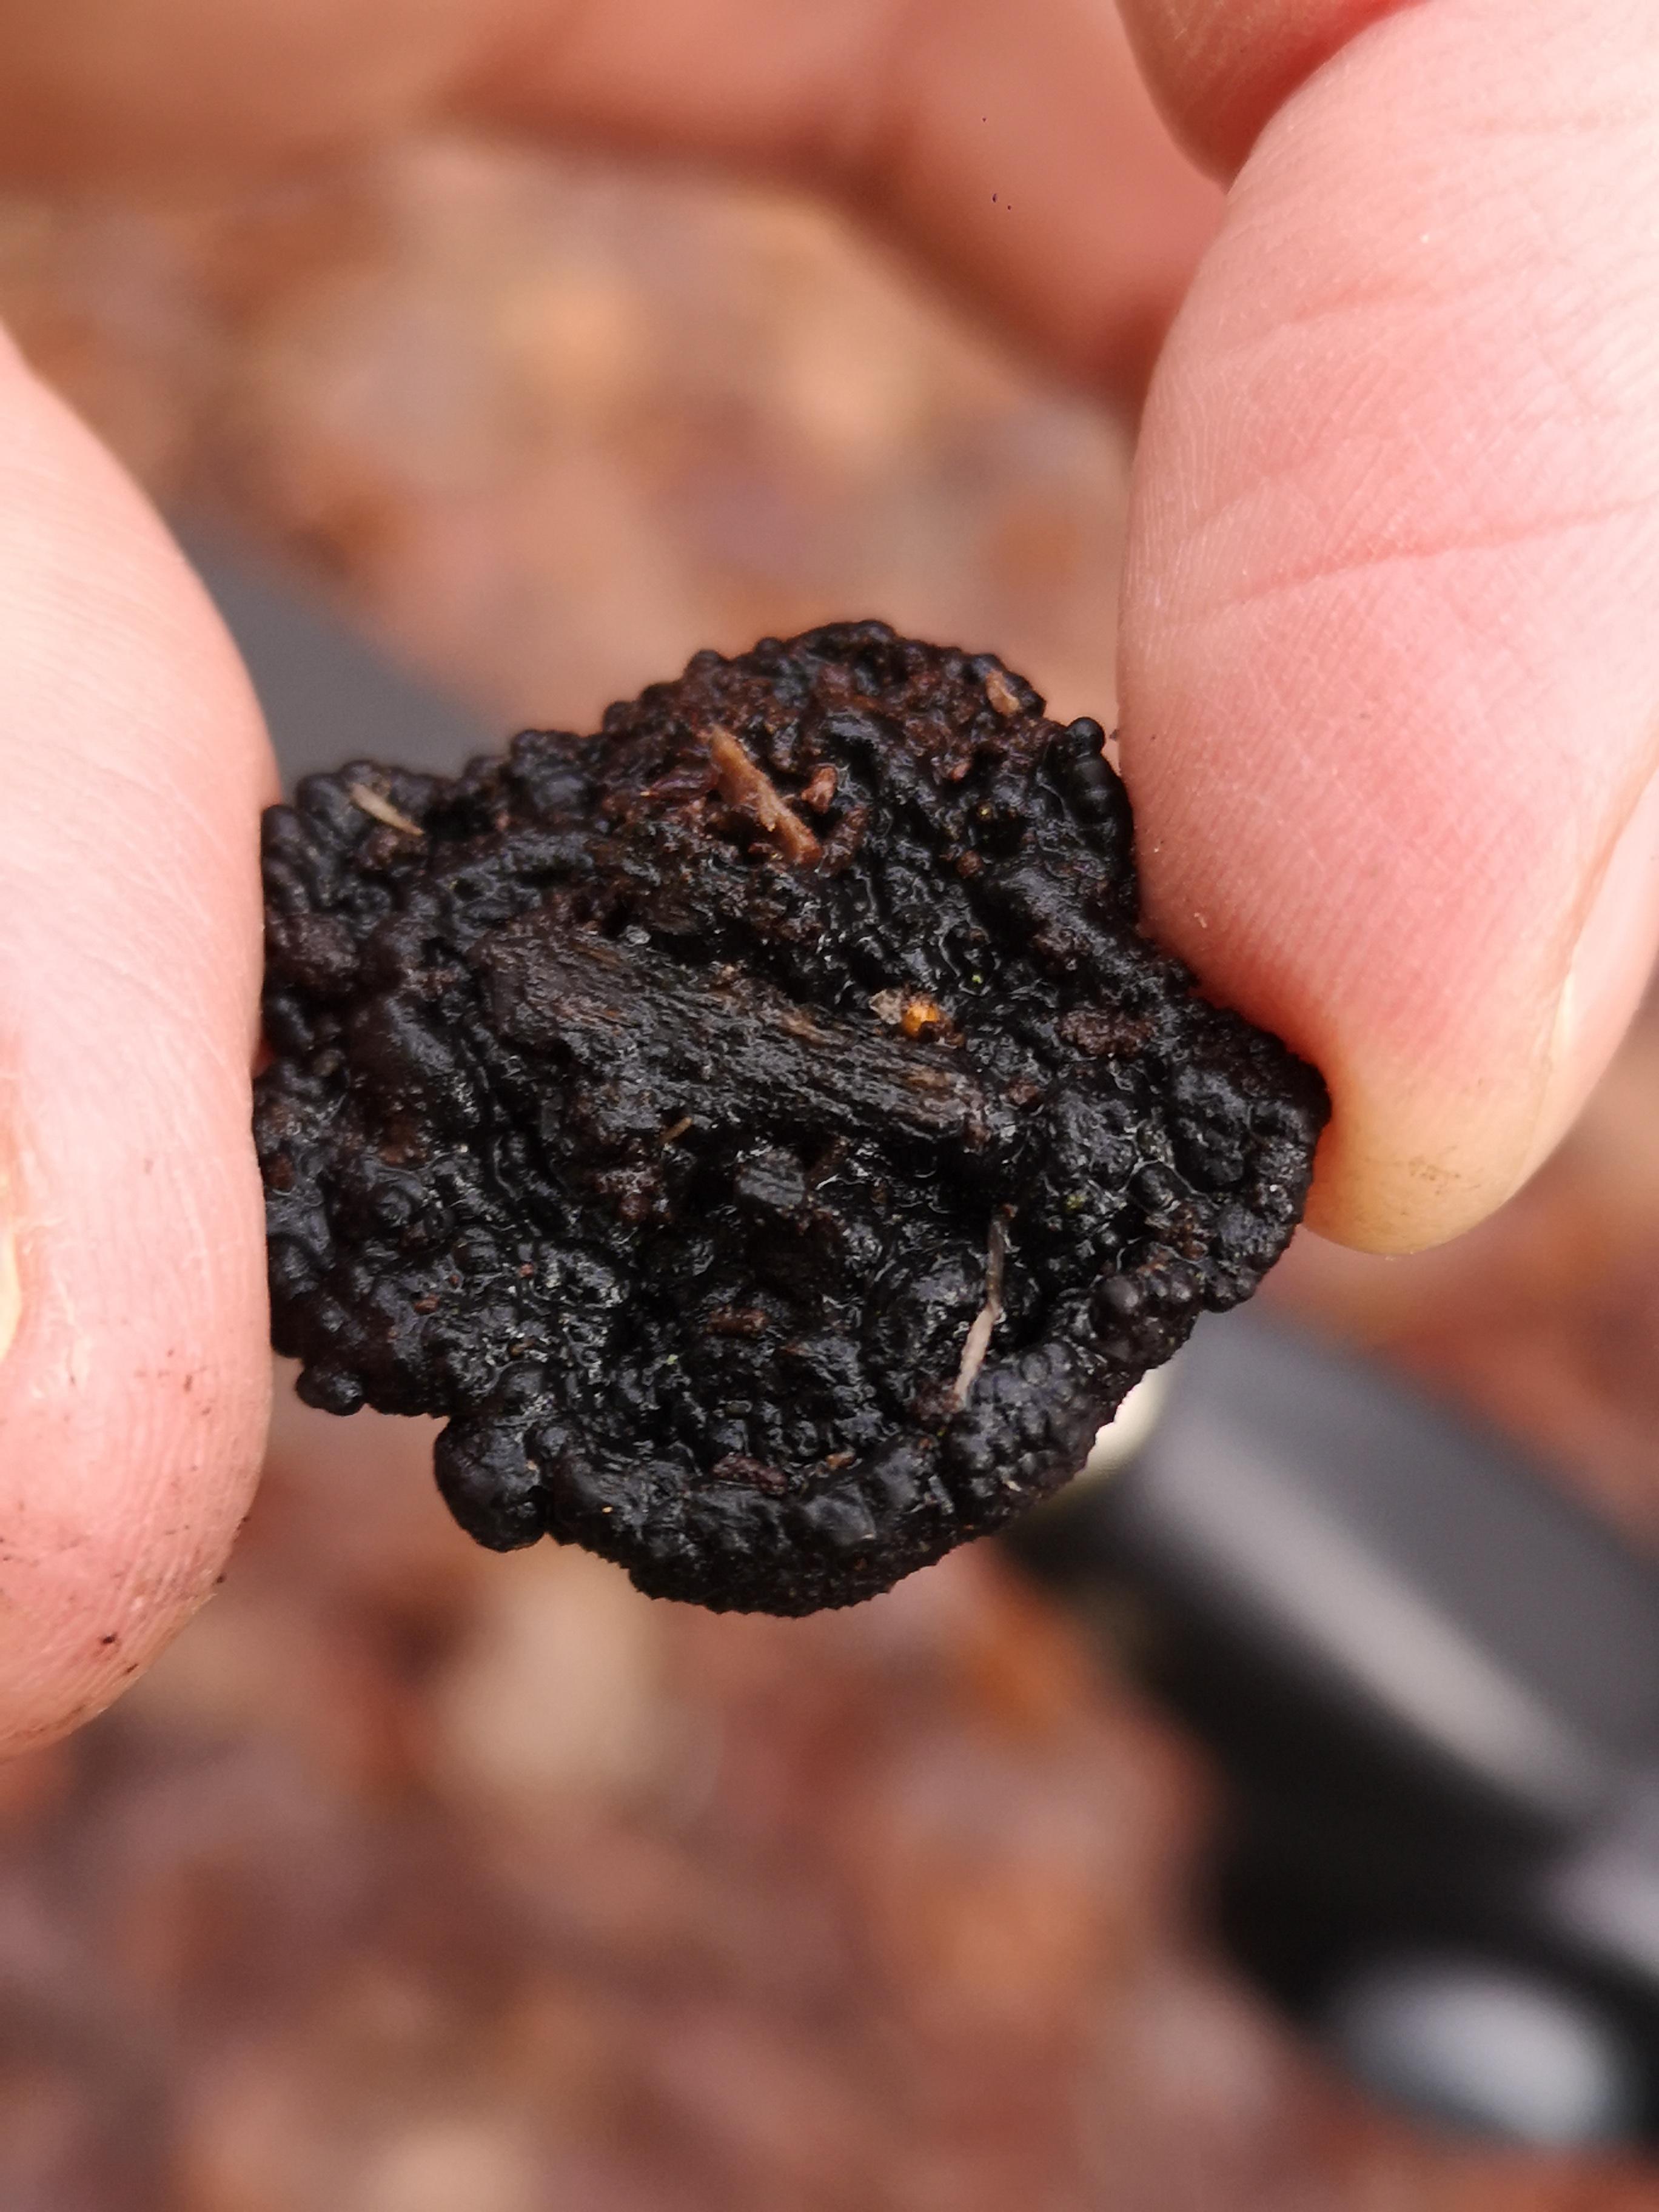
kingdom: Fungi
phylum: Ascomycota
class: Sordariomycetes
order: Xylariales
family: Hypoxylaceae
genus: Jackrogersella
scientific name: Jackrogersella multiformis
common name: foranderlig kulbær
